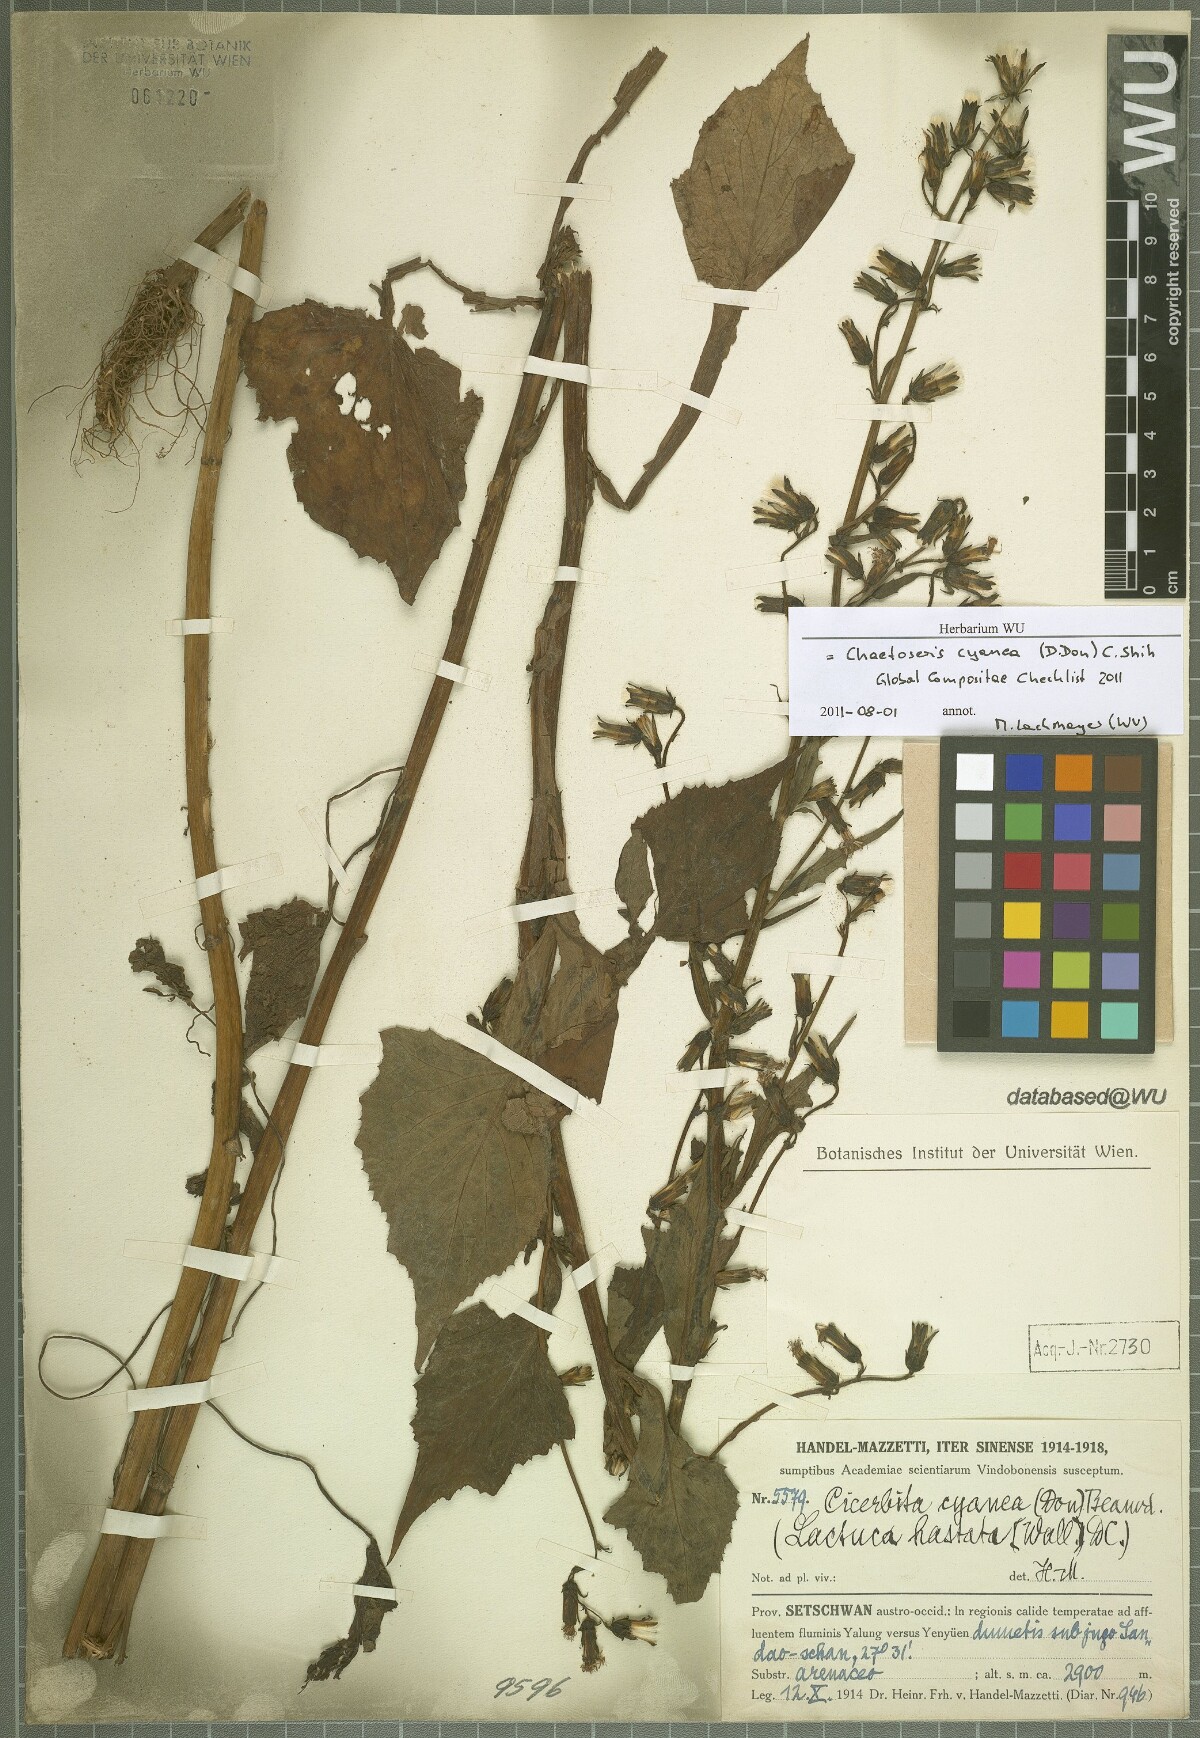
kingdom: Plantae
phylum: Tracheophyta
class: Magnoliopsida
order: Asterales
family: Asteraceae
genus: Melanoseris
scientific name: Melanoseris cyanea
